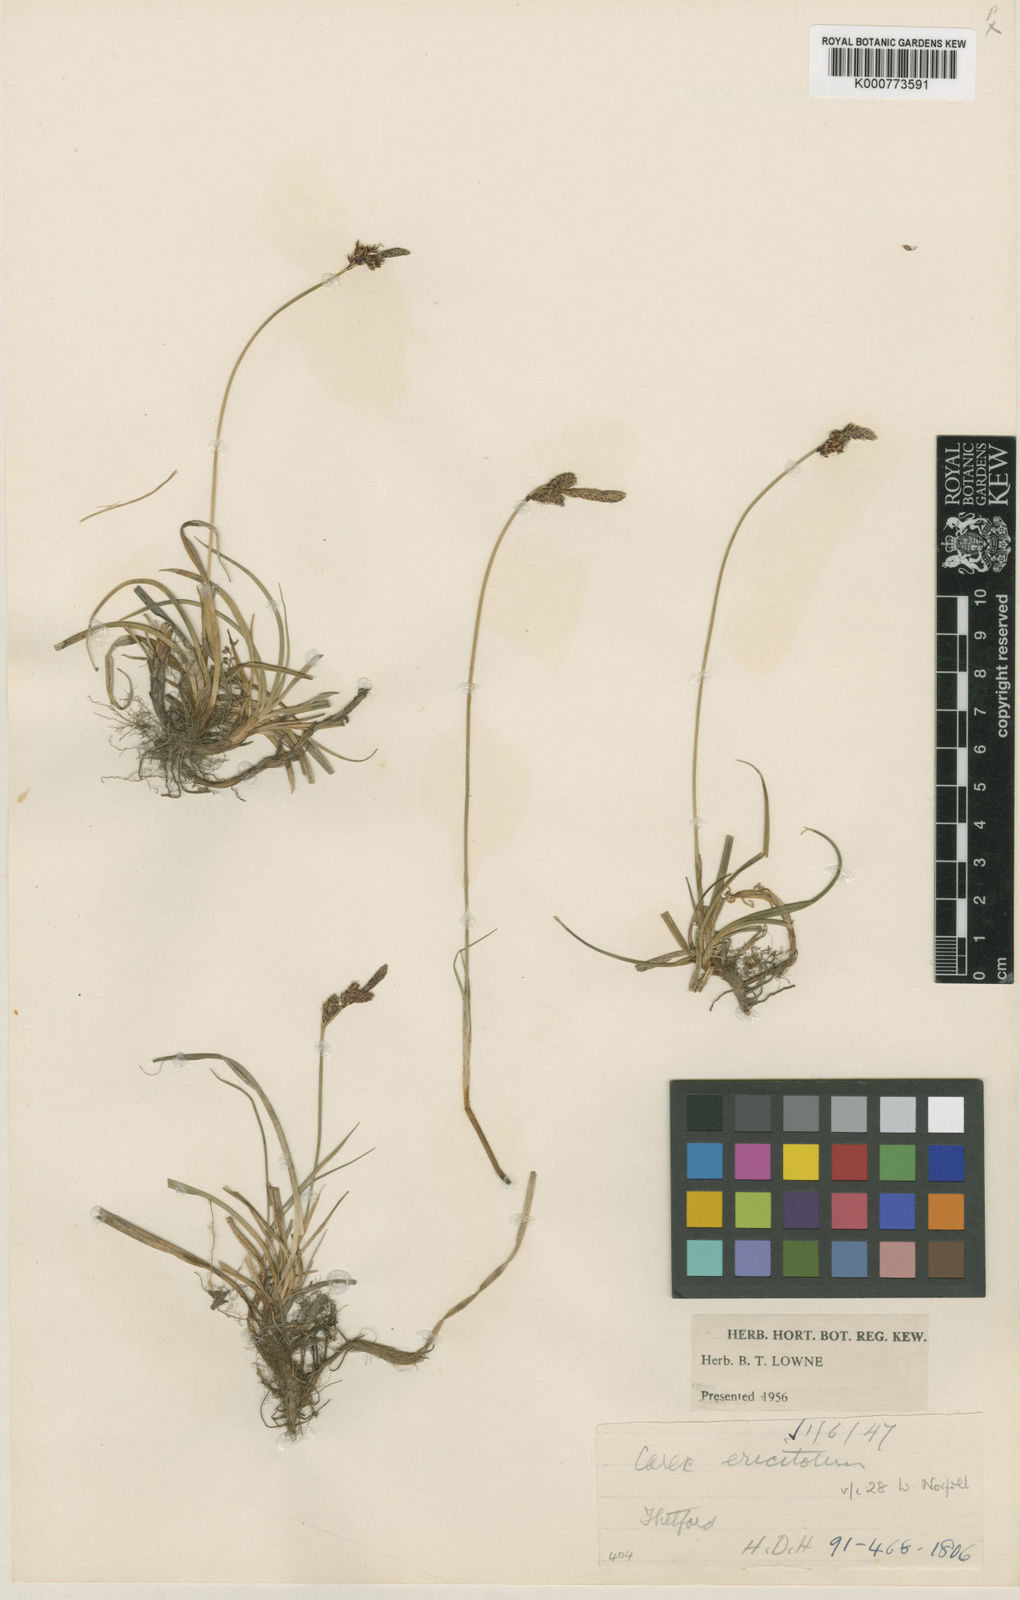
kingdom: Plantae
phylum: Tracheophyta
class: Liliopsida
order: Poales
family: Cyperaceae
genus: Carex
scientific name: Carex ericetorum
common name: Rare spring-sedge
